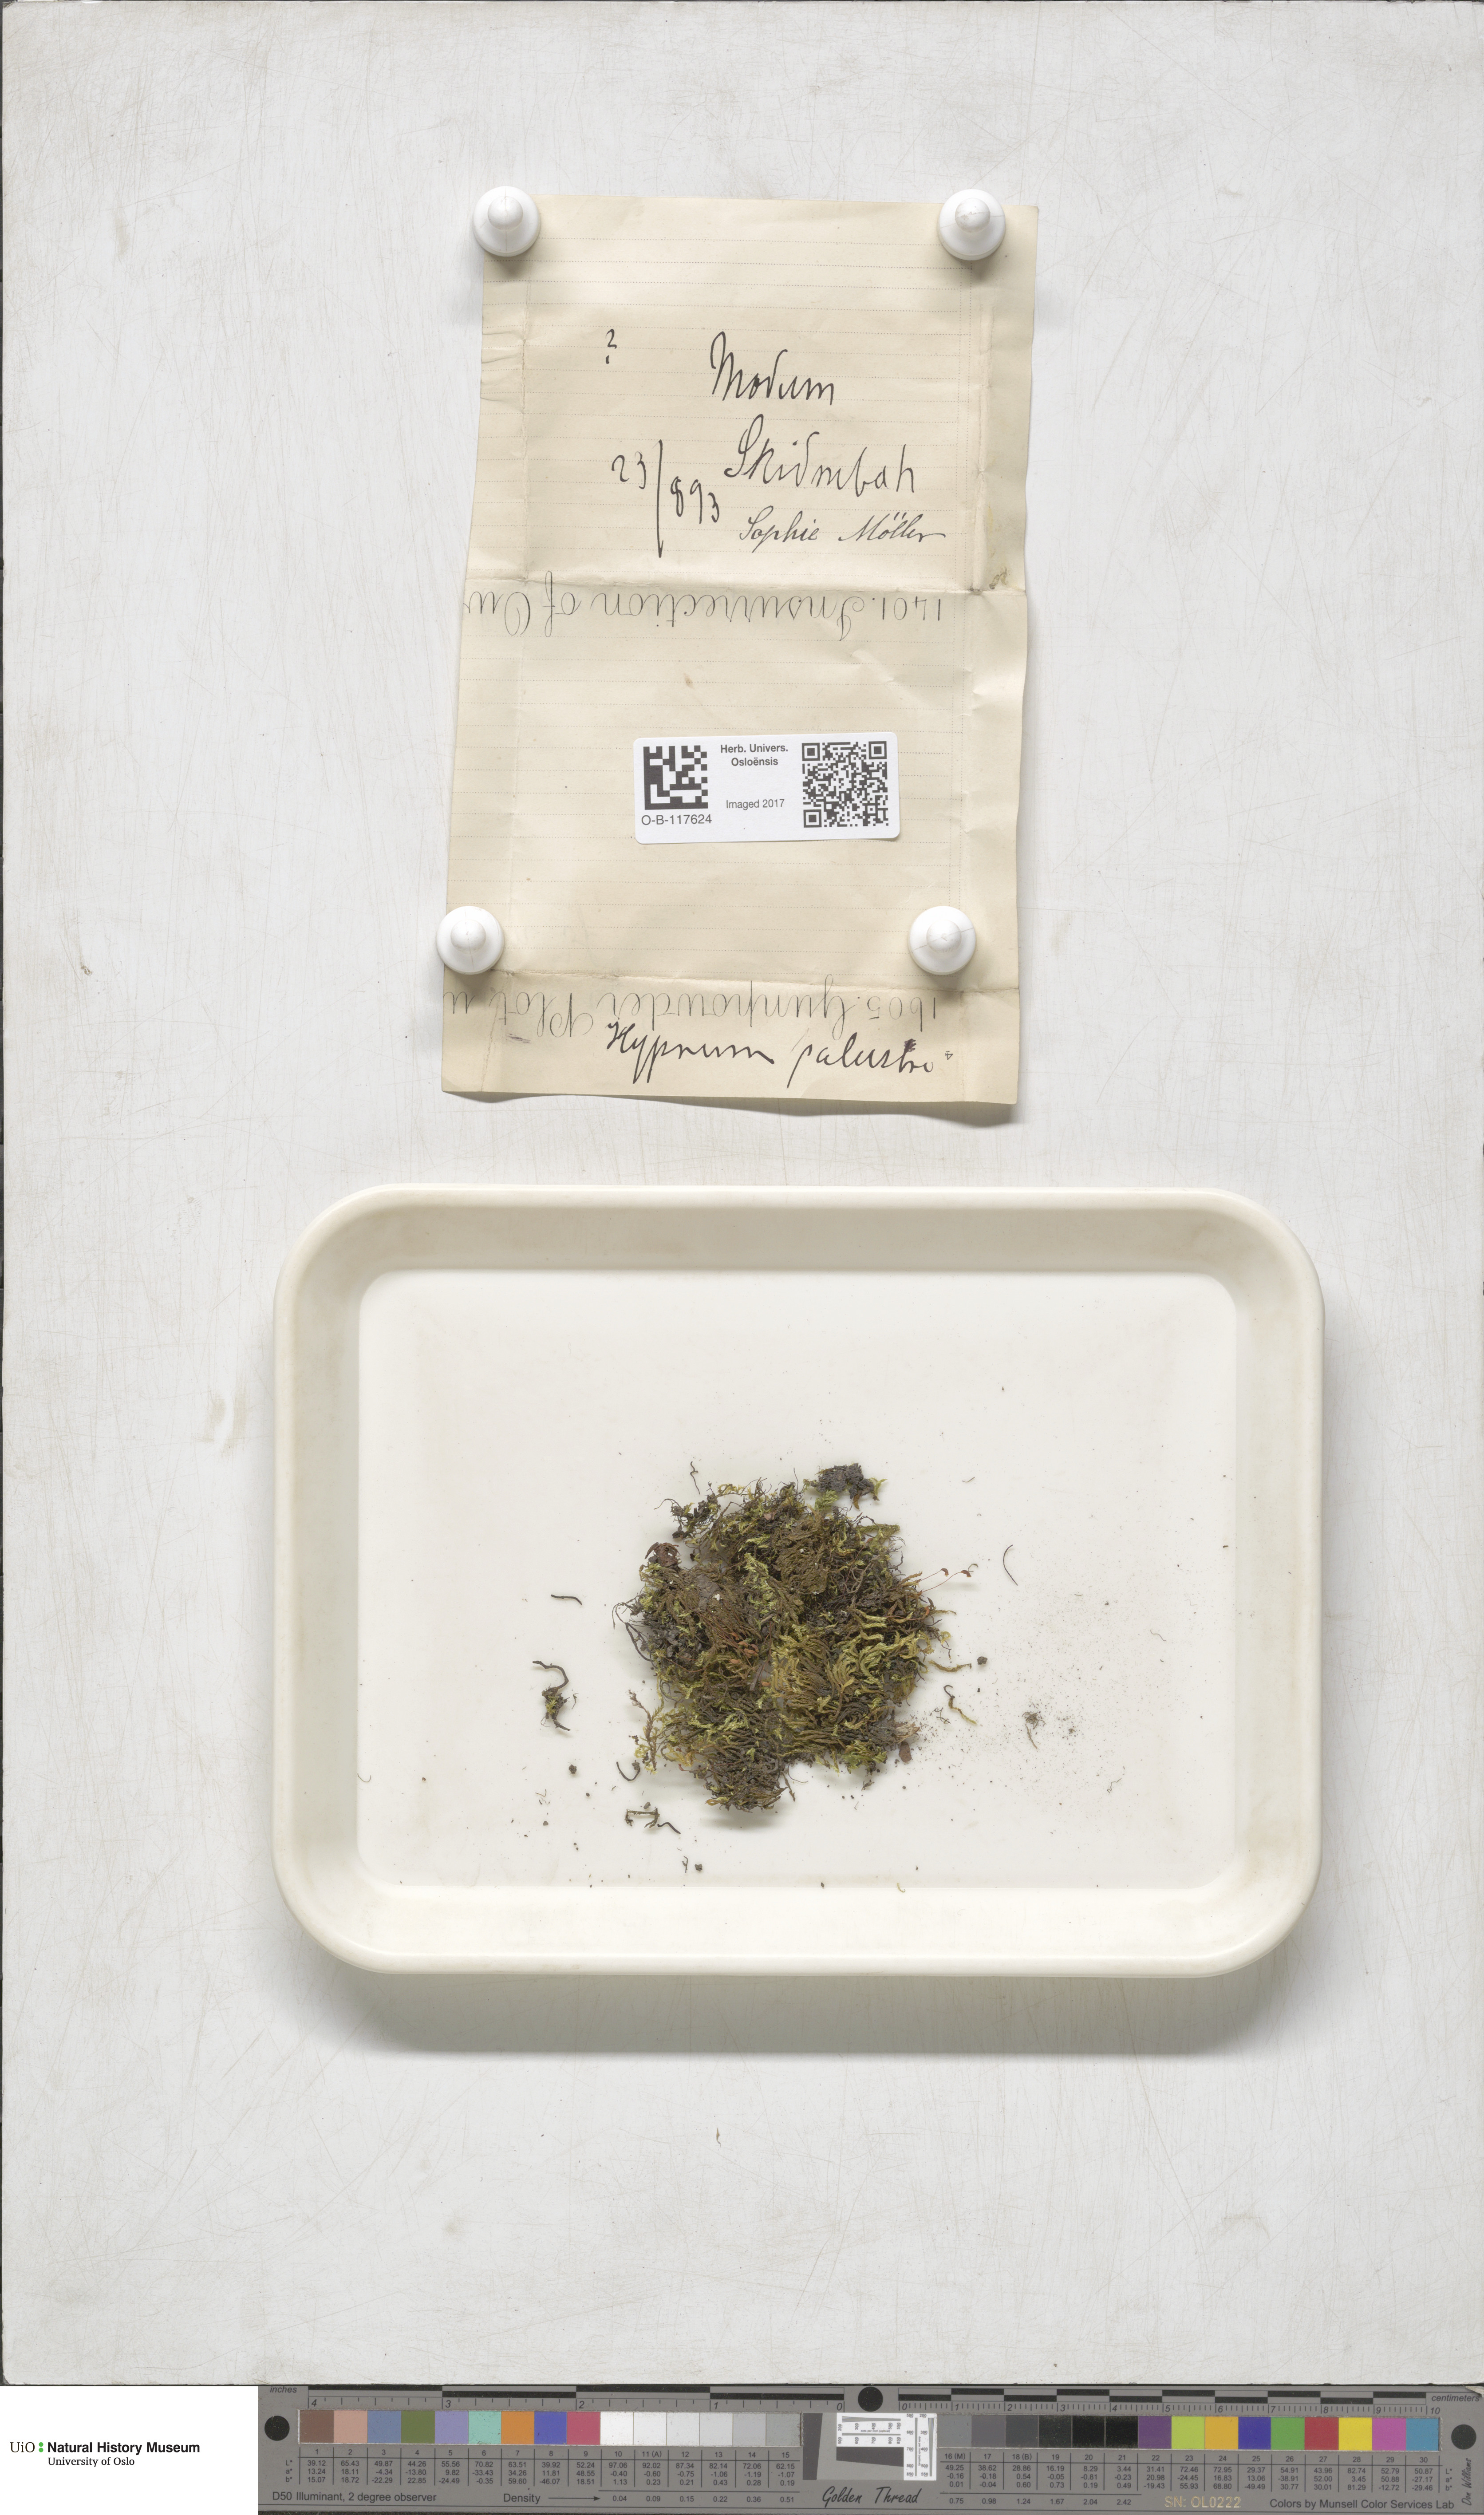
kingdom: Plantae
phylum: Bryophyta
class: Bryopsida
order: Hypnales
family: Amblystegiaceae
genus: Hygrohypnum
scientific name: Hygrohypnum luridum
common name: Drab brook moss
